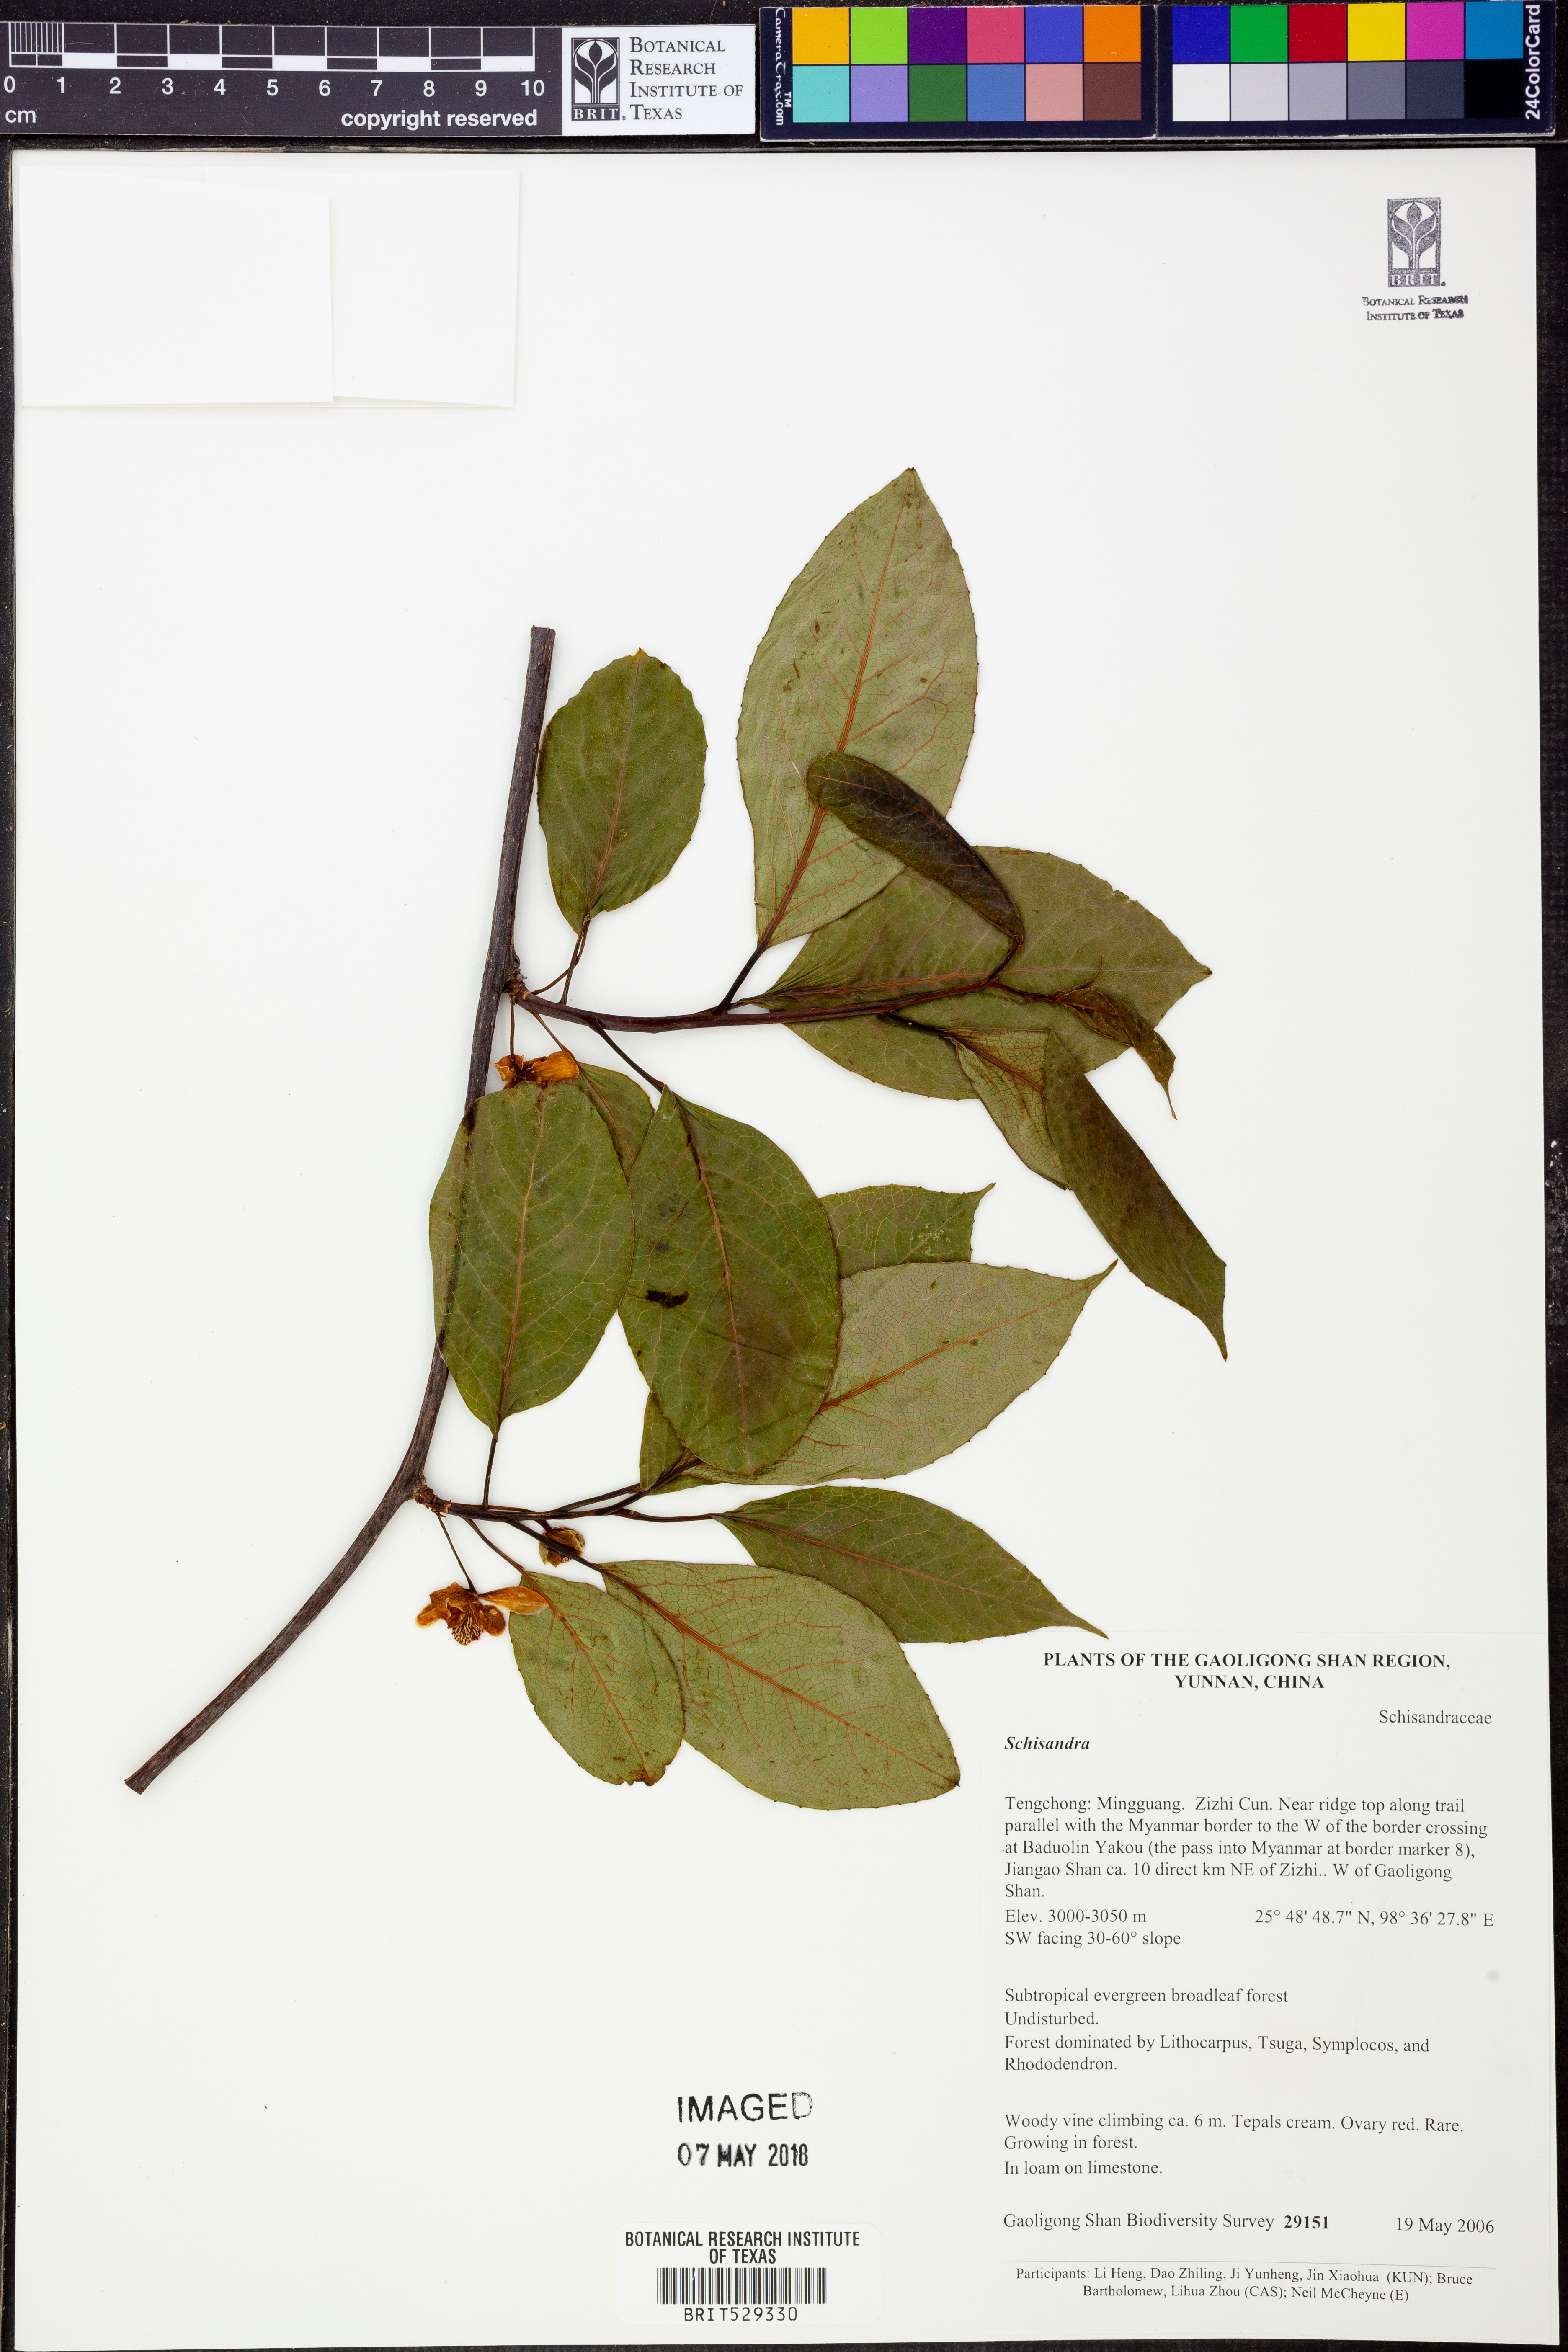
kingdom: Plantae
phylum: Tracheophyta
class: Magnoliopsida
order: Austrobaileyales
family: Schisandraceae
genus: Schisandra
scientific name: Schisandra
